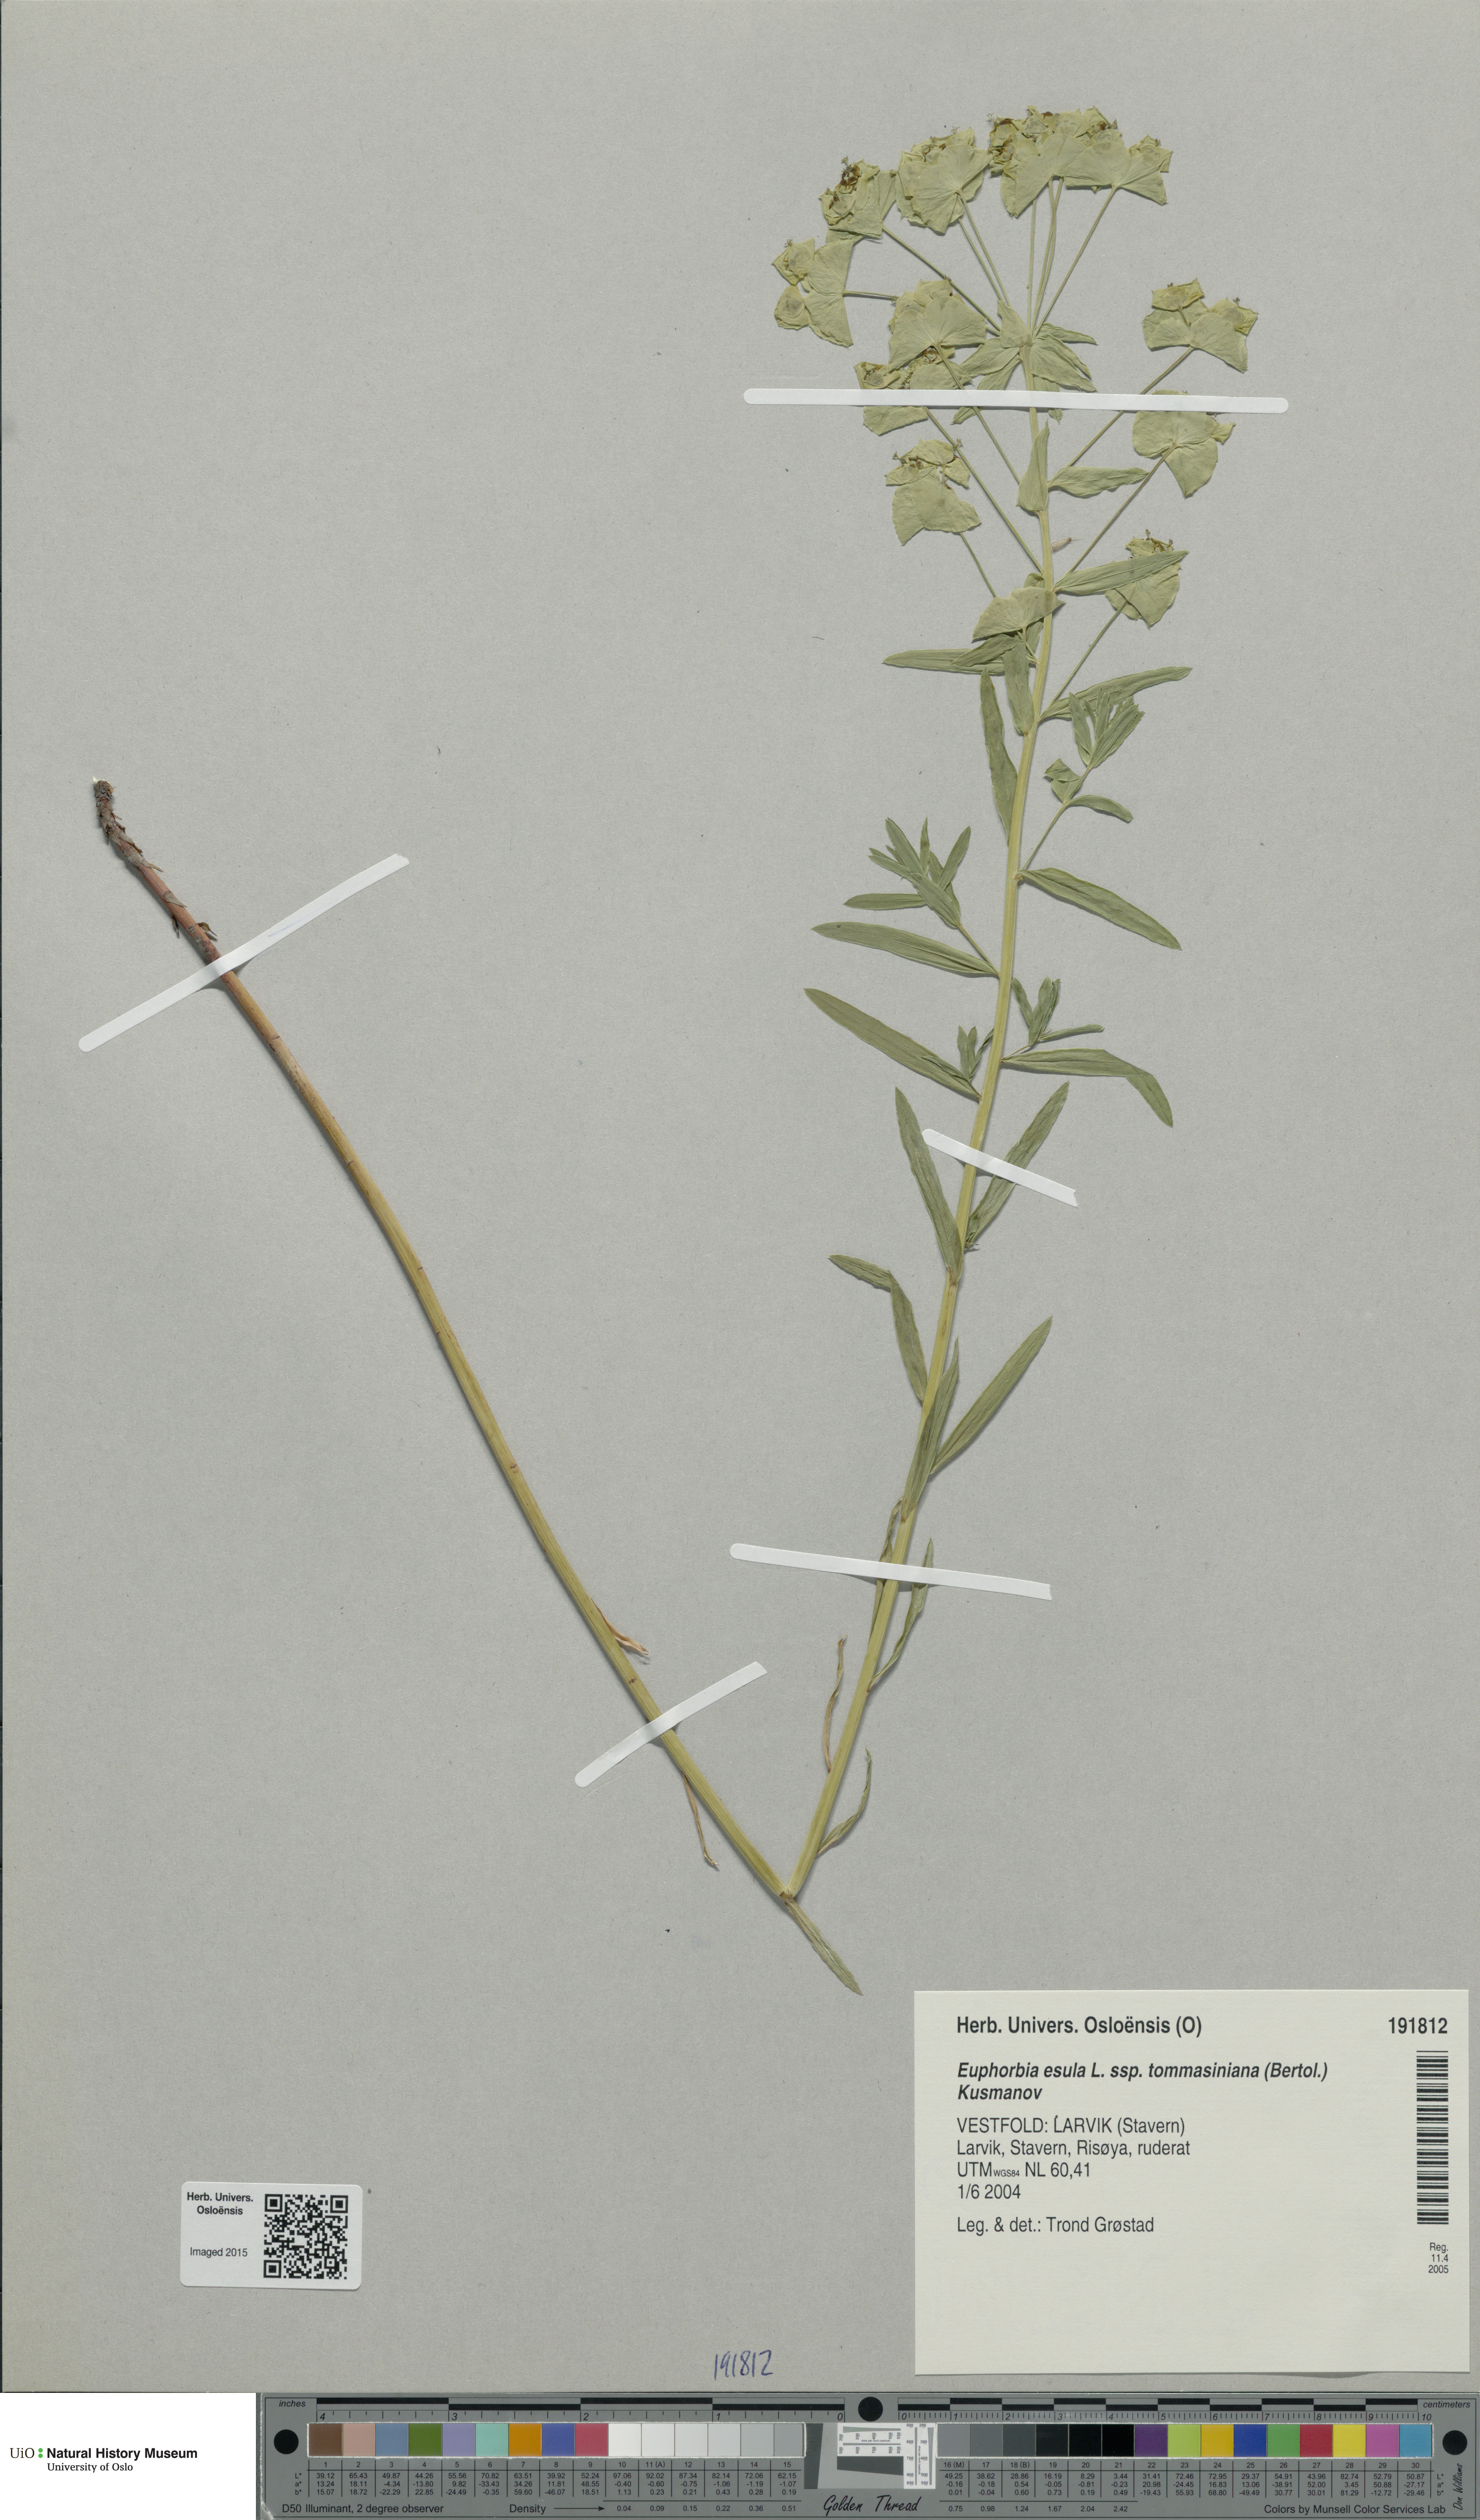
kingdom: Plantae
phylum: Tracheophyta
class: Magnoliopsida
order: Malpighiales
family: Euphorbiaceae
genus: Euphorbia
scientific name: Euphorbia tommasiniana
